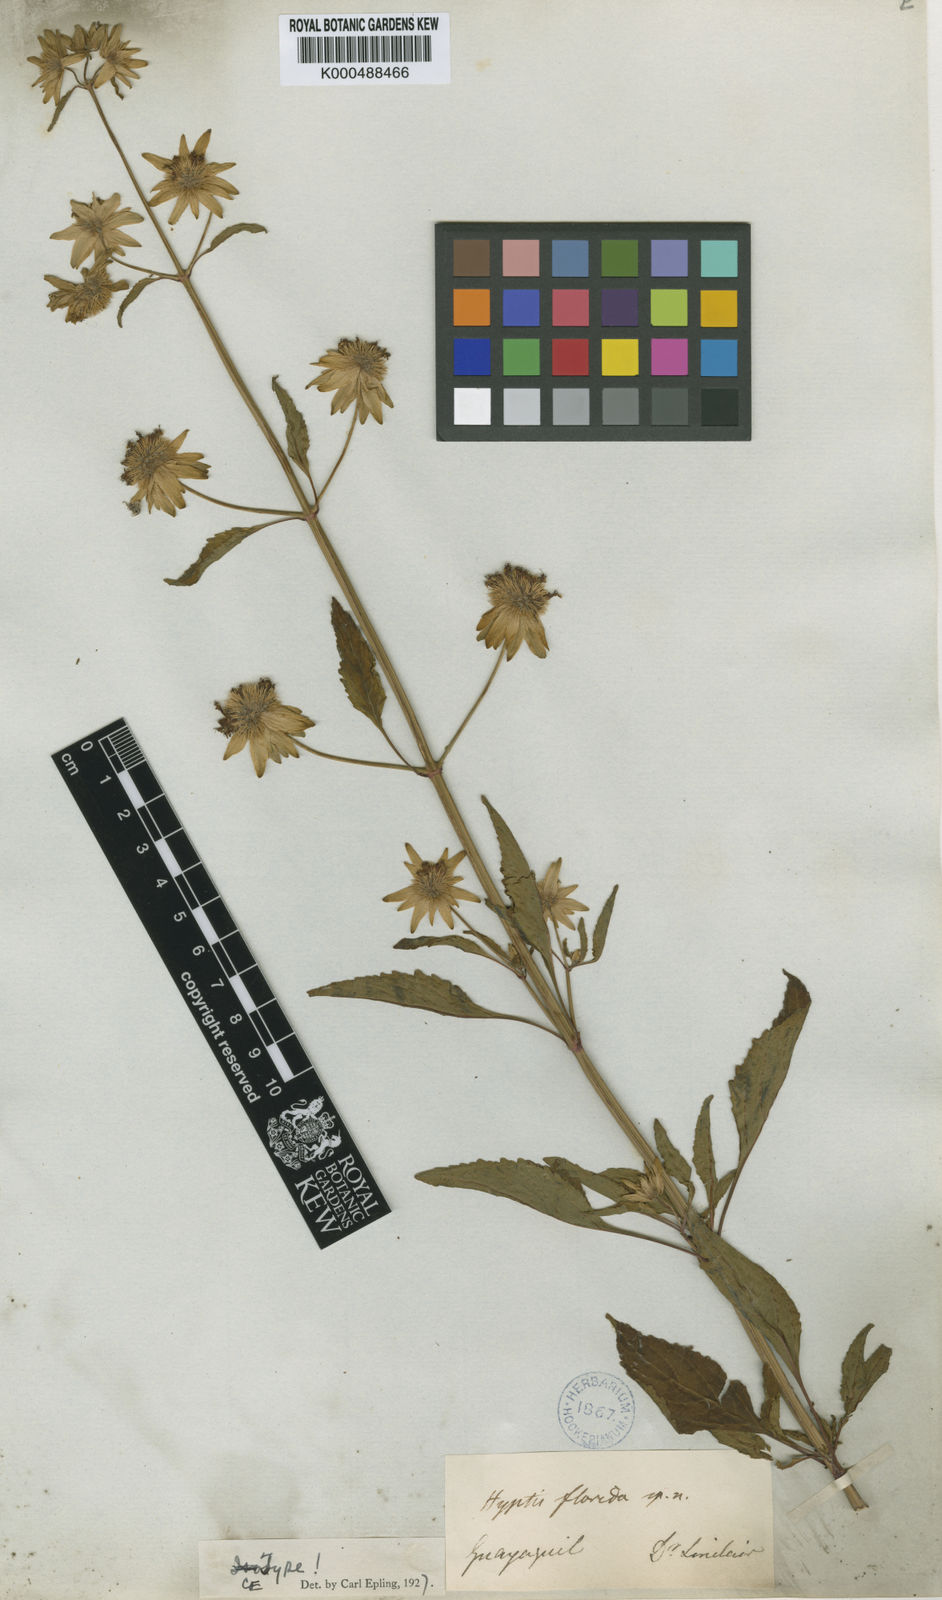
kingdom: Plantae
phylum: Tracheophyta
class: Magnoliopsida
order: Lamiales
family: Lamiaceae
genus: Hyptis
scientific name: Hyptis florida
